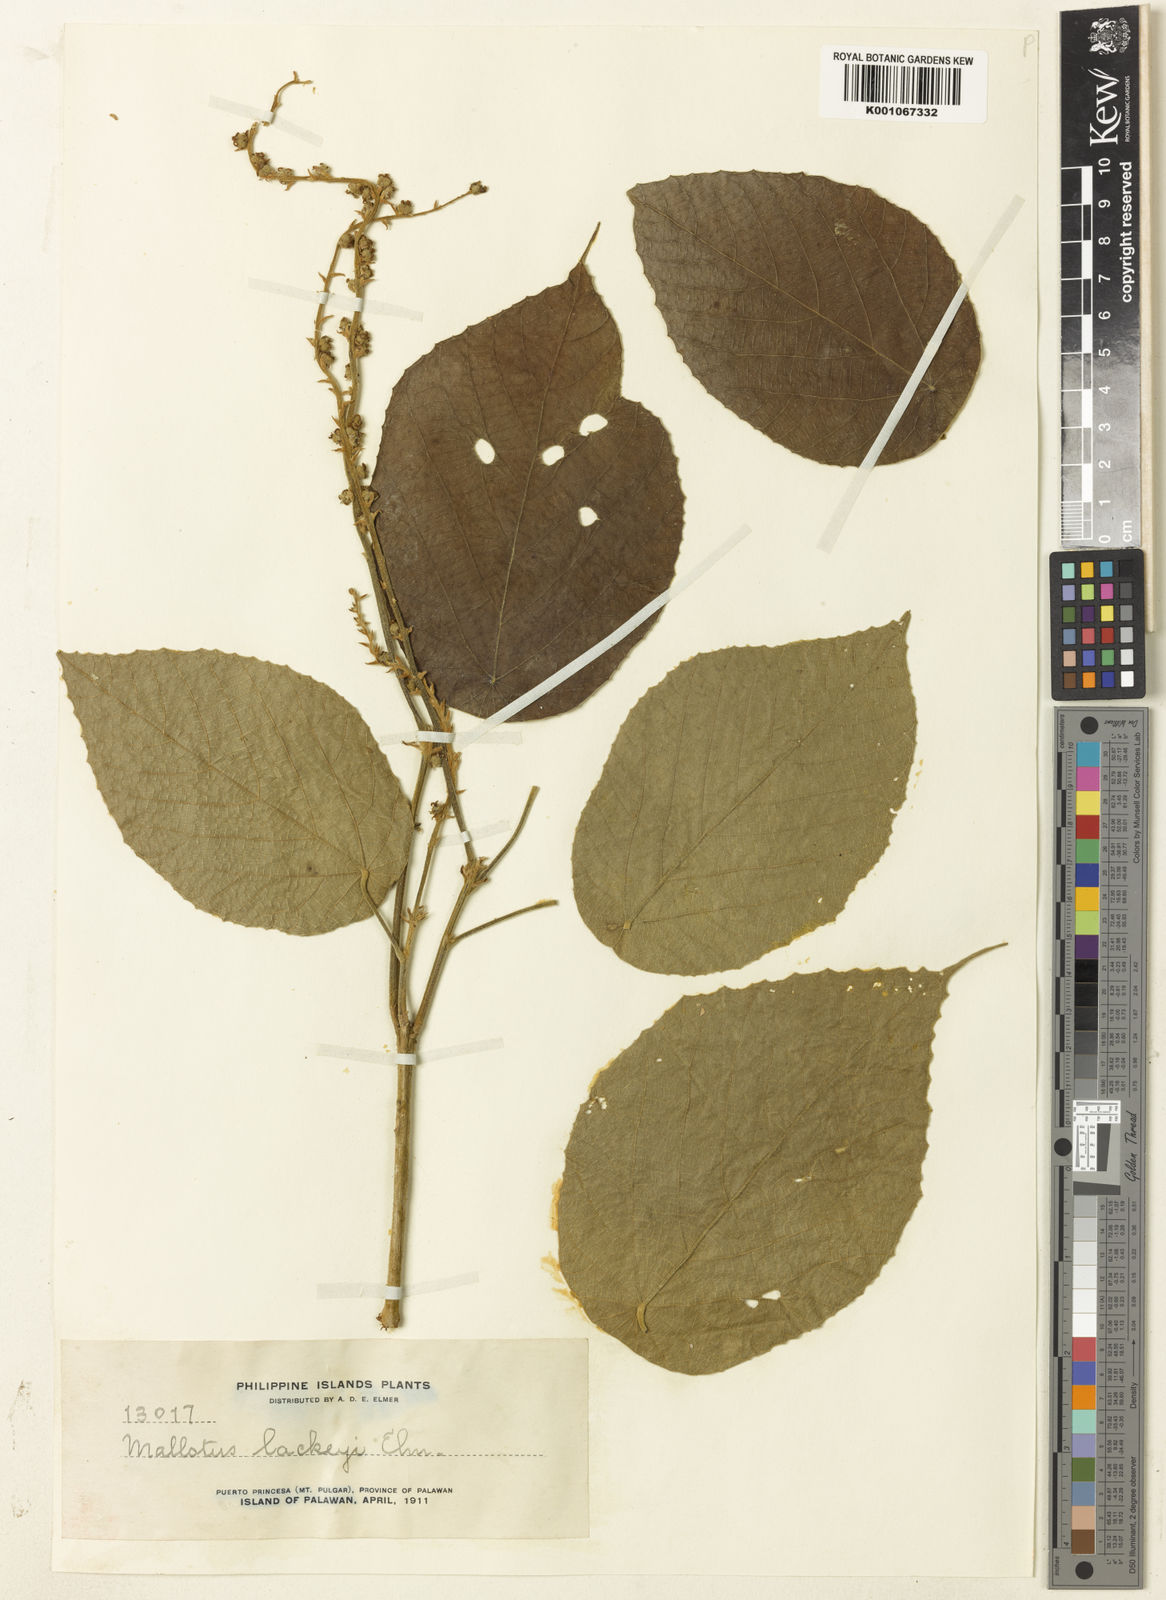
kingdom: Plantae
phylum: Tracheophyta
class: Magnoliopsida
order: Malpighiales
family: Euphorbiaceae
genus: Mallotus
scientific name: Mallotus lackeyi
